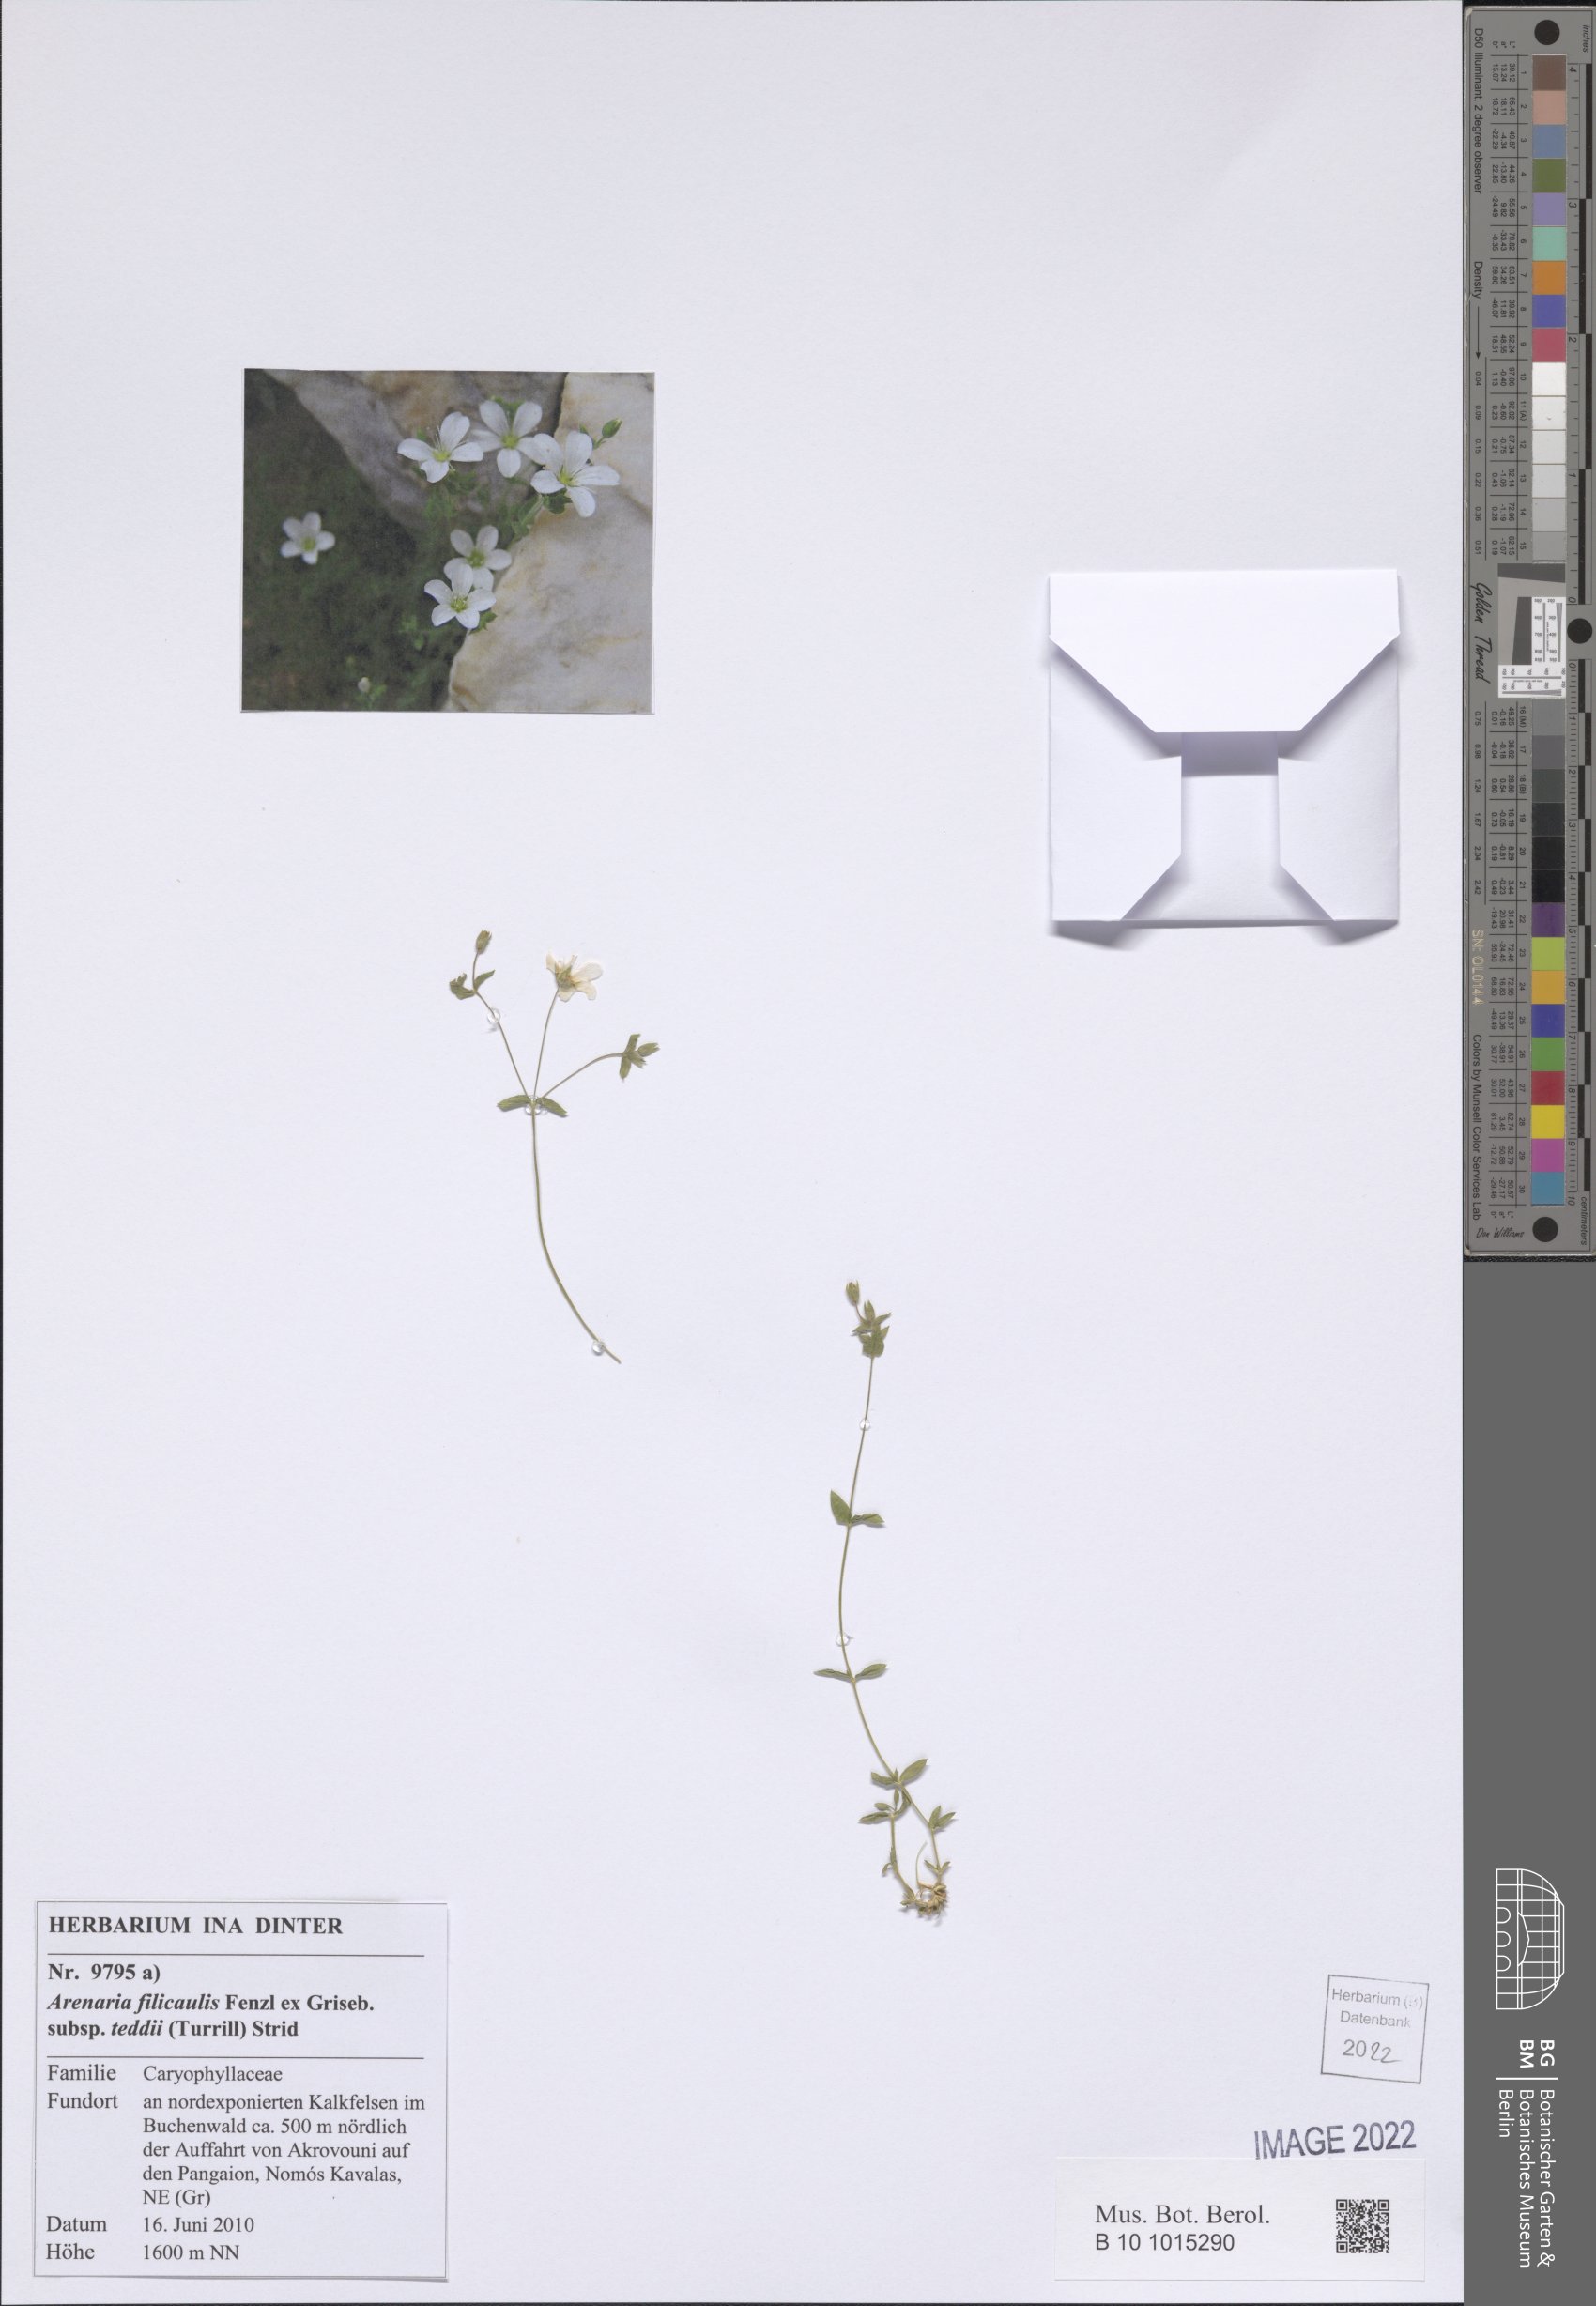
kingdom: Plantae
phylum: Tracheophyta
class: Magnoliopsida
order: Caryophyllales
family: Caryophyllaceae
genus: Arenaria
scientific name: Arenaria filicaulis
